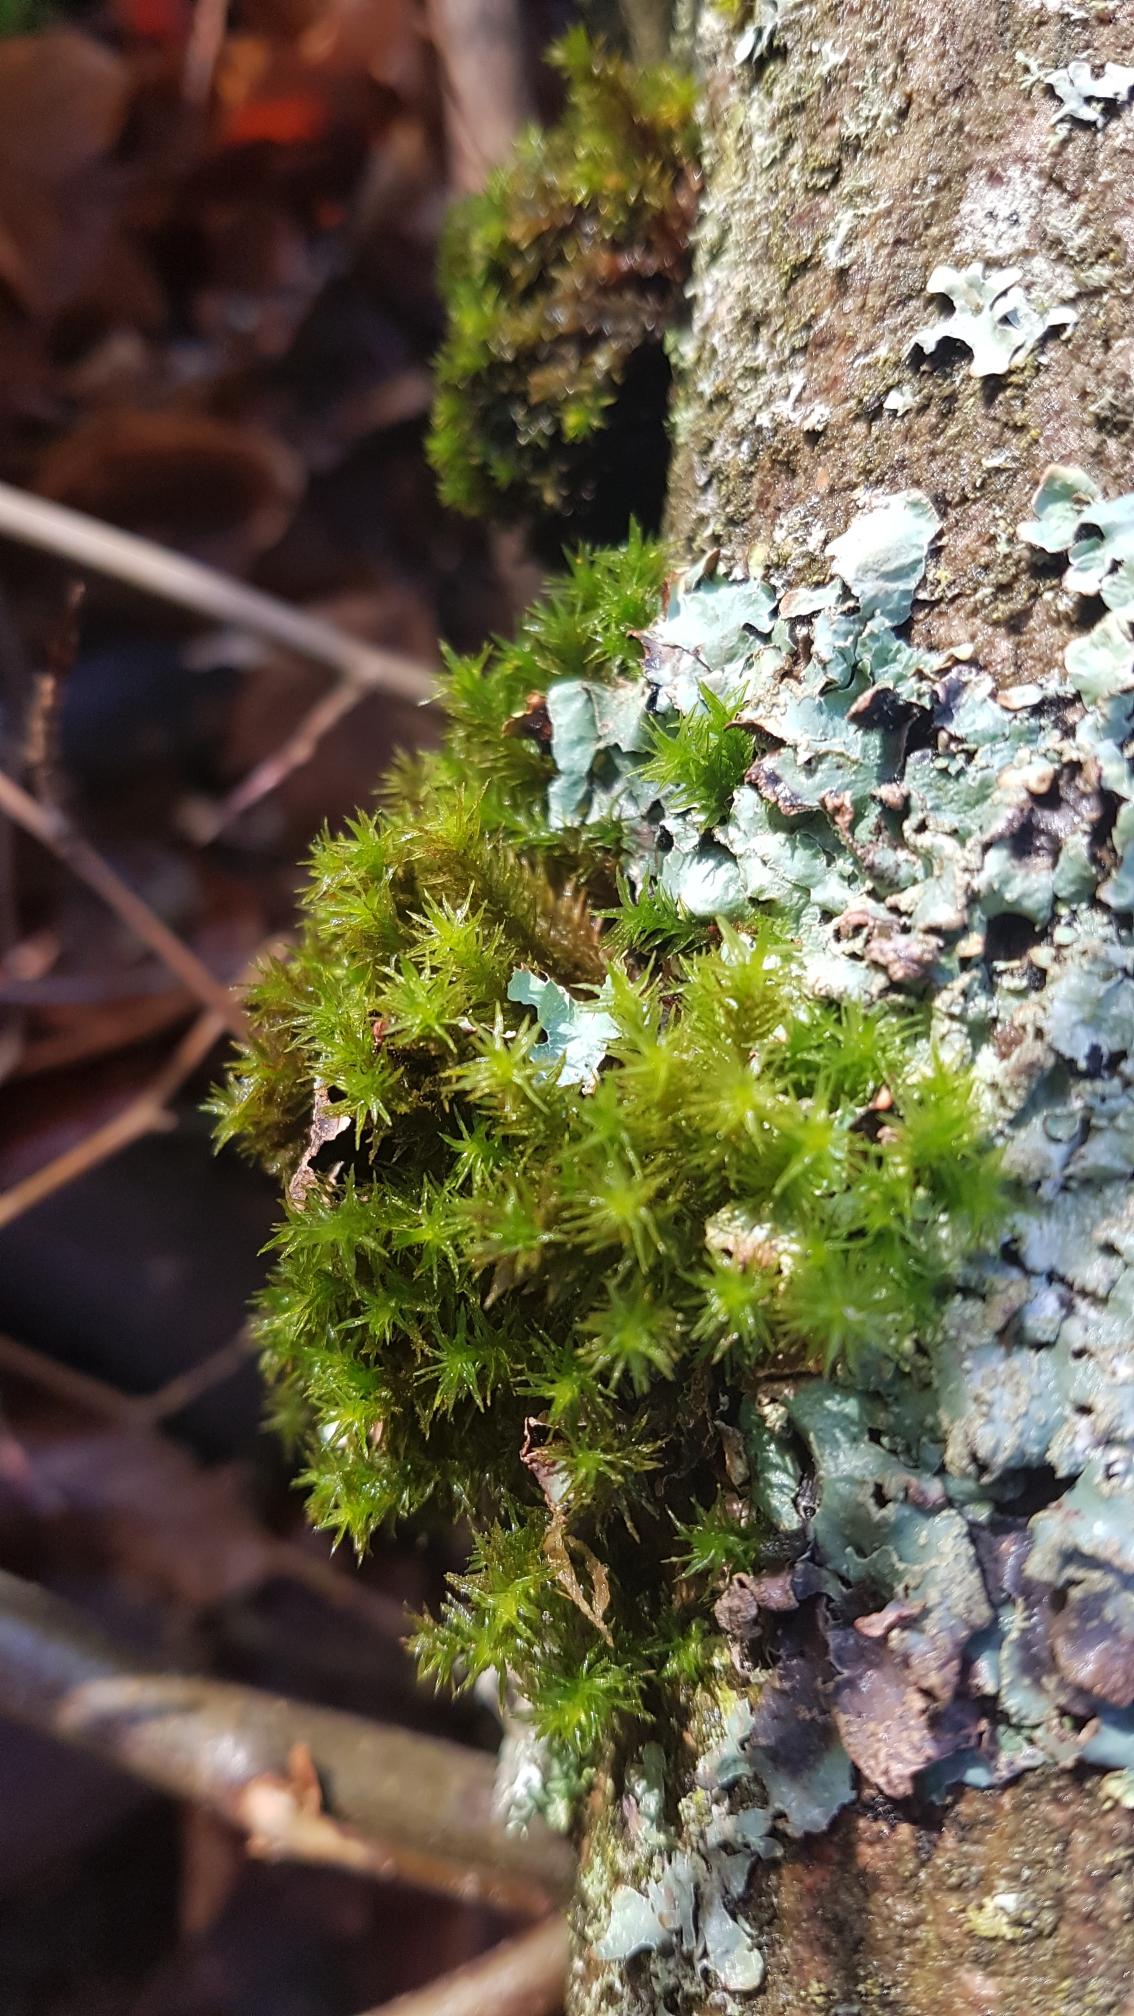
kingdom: Plantae
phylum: Bryophyta
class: Bryopsida
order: Orthotrichales
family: Orthotrichaceae
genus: Pulvigera
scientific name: Pulvigera lyellii
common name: Stor furehætte
